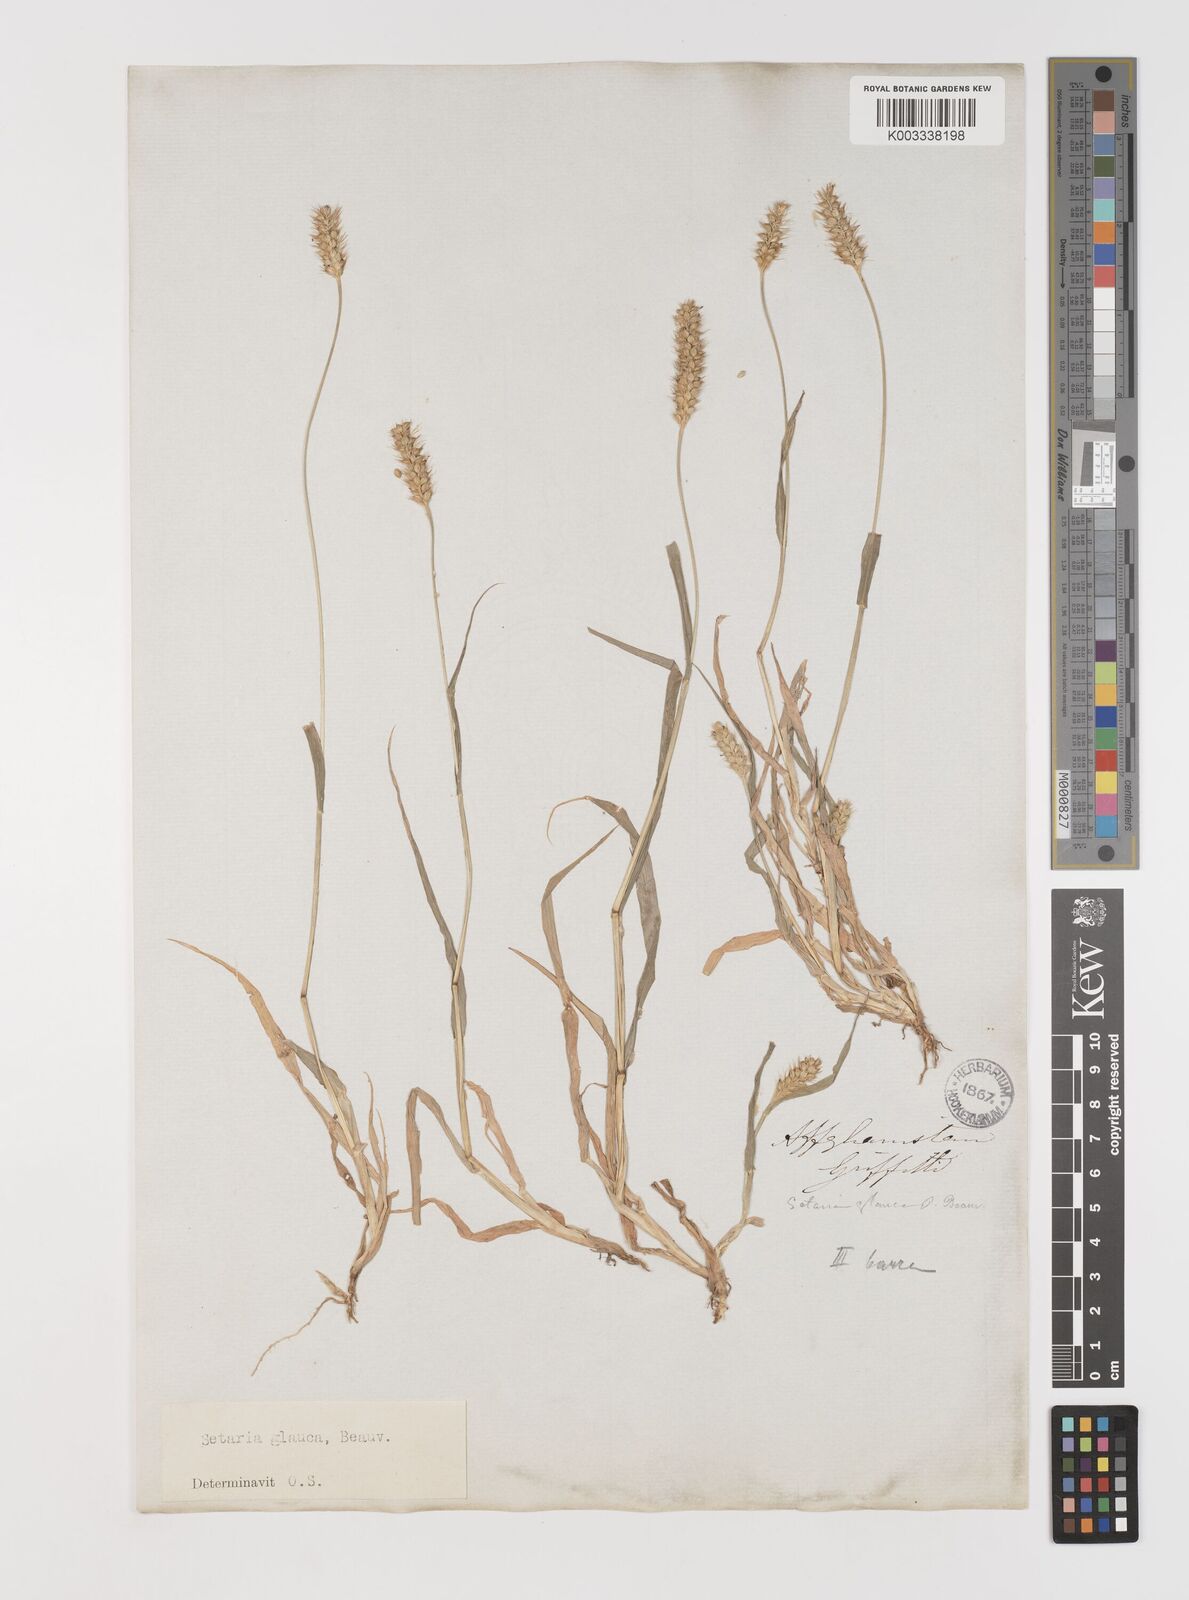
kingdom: Plantae
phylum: Tracheophyta
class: Liliopsida
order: Poales
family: Poaceae
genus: Setaria
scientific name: Setaria pumila
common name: Yellow bristle-grass
